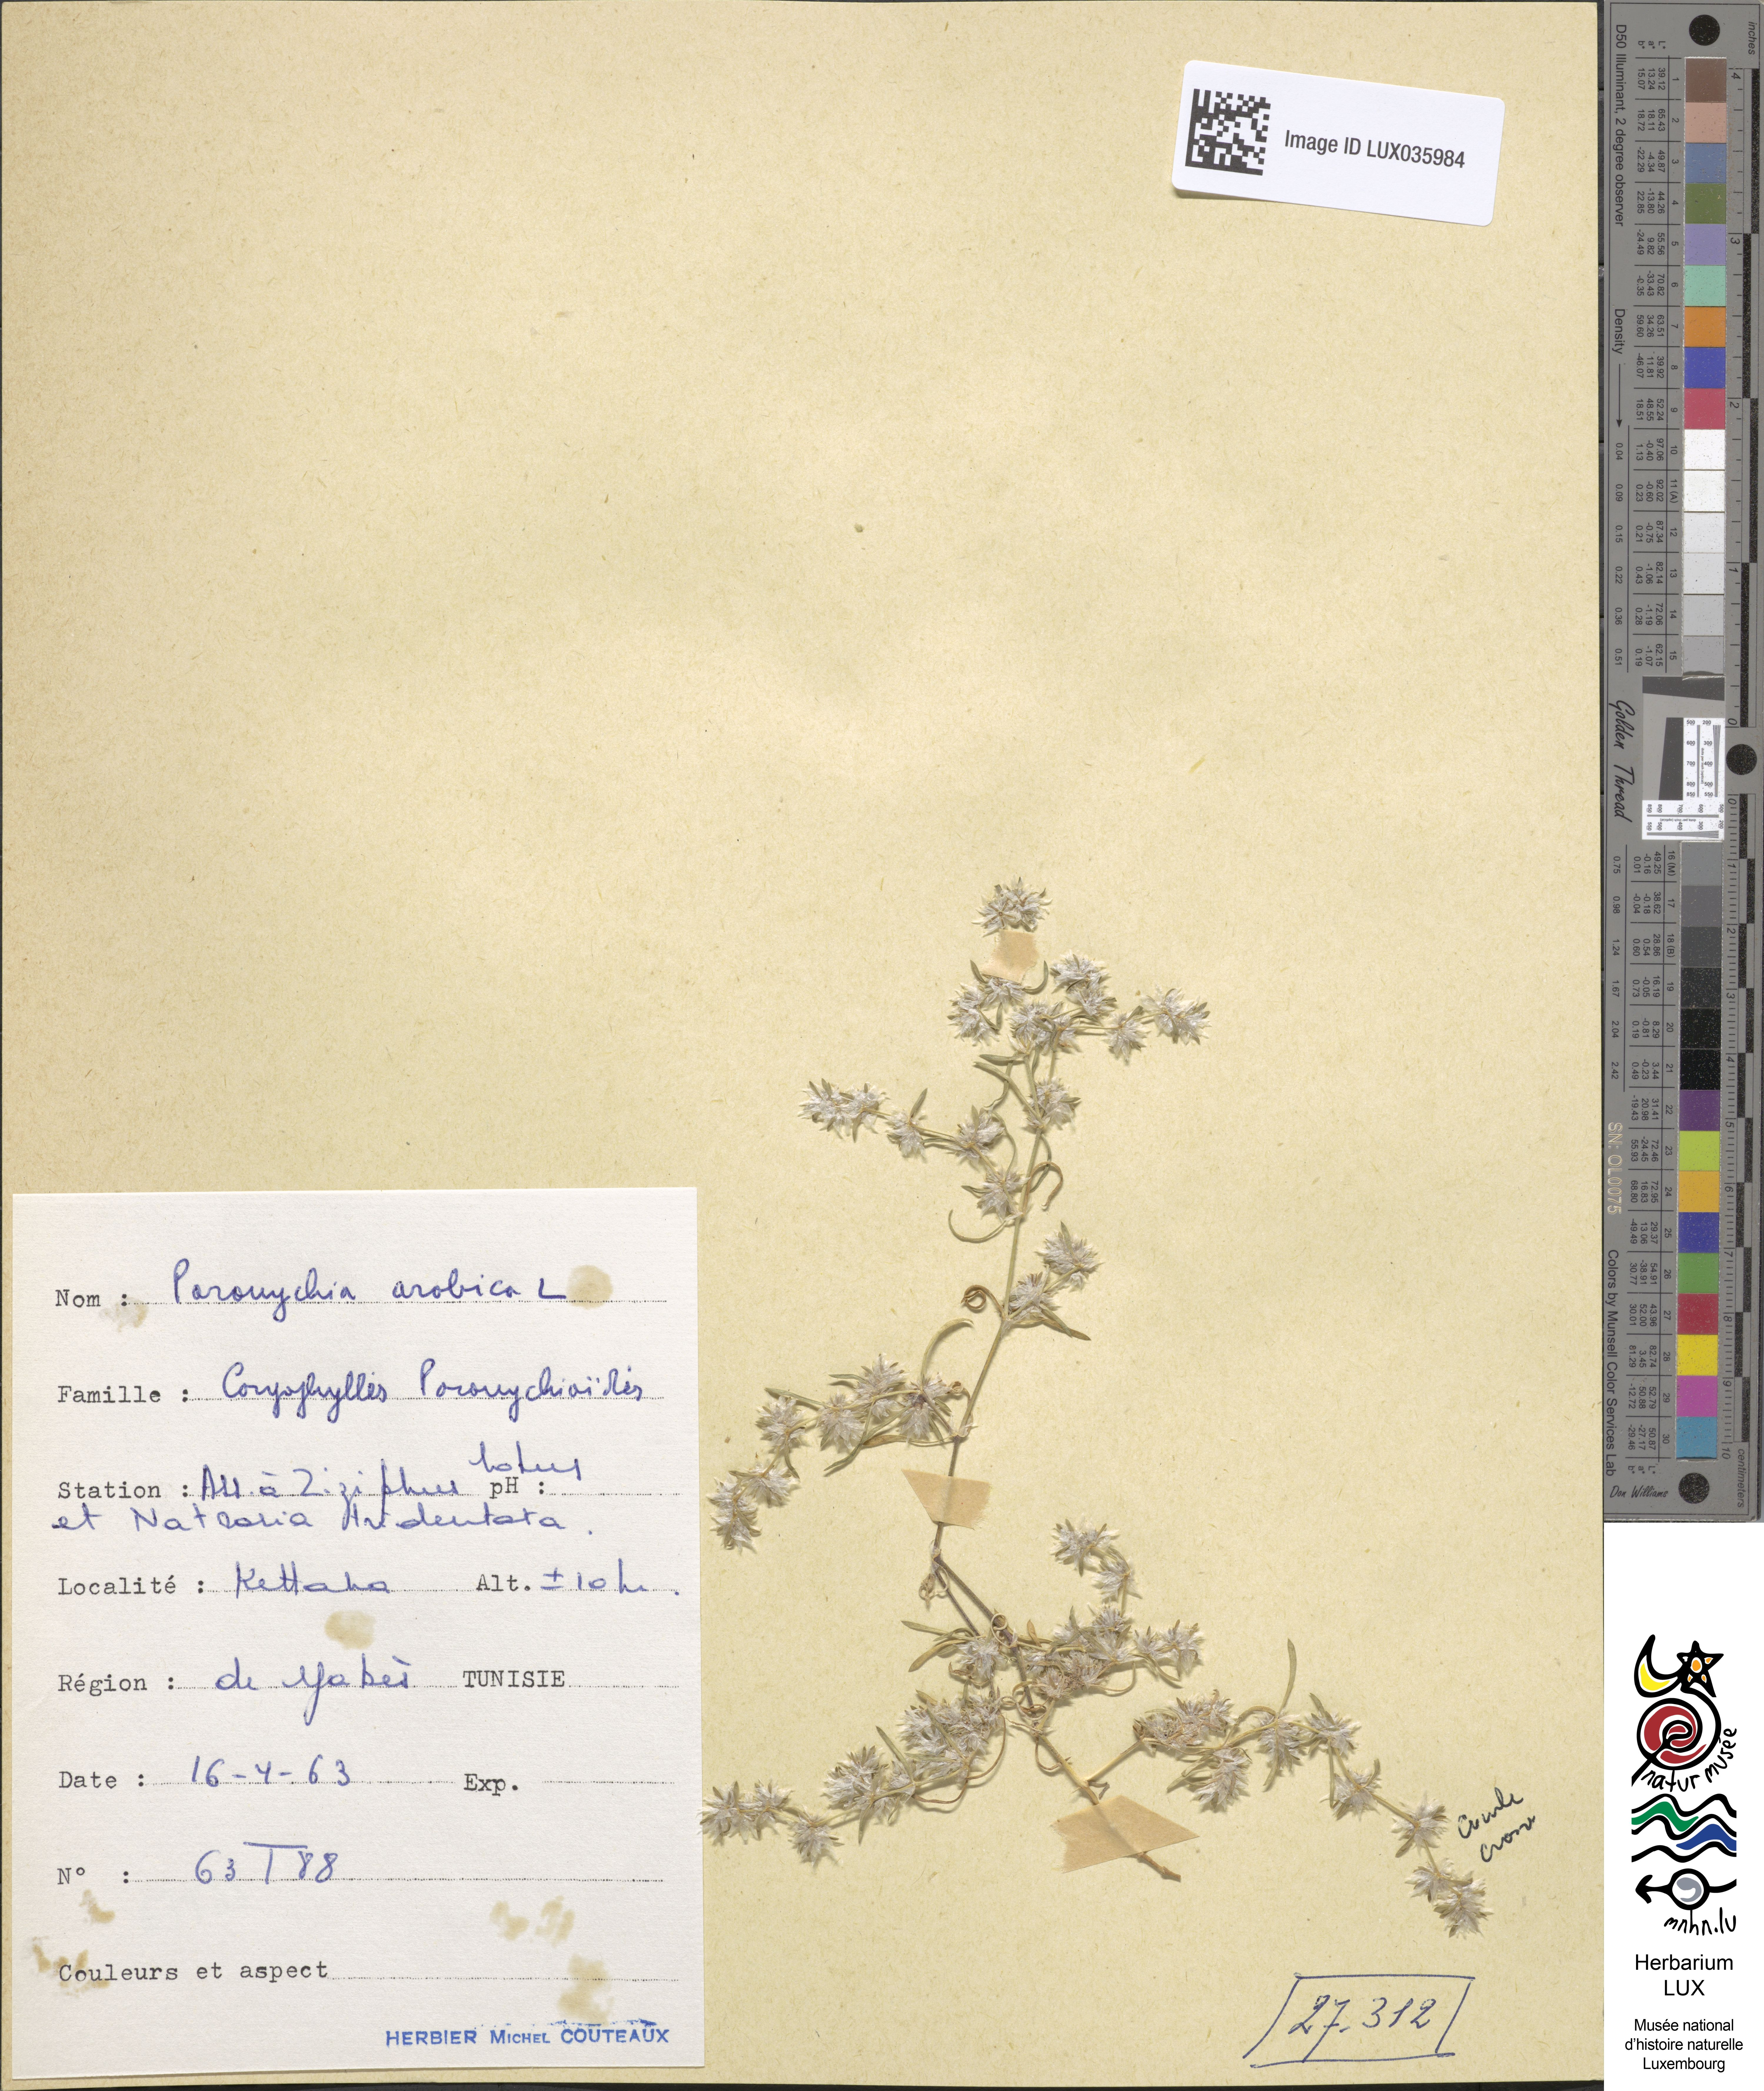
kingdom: Plantae
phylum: Tracheophyta
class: Magnoliopsida
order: Caryophyllales
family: Caryophyllaceae
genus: Paronychia
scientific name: Paronychia arabica
